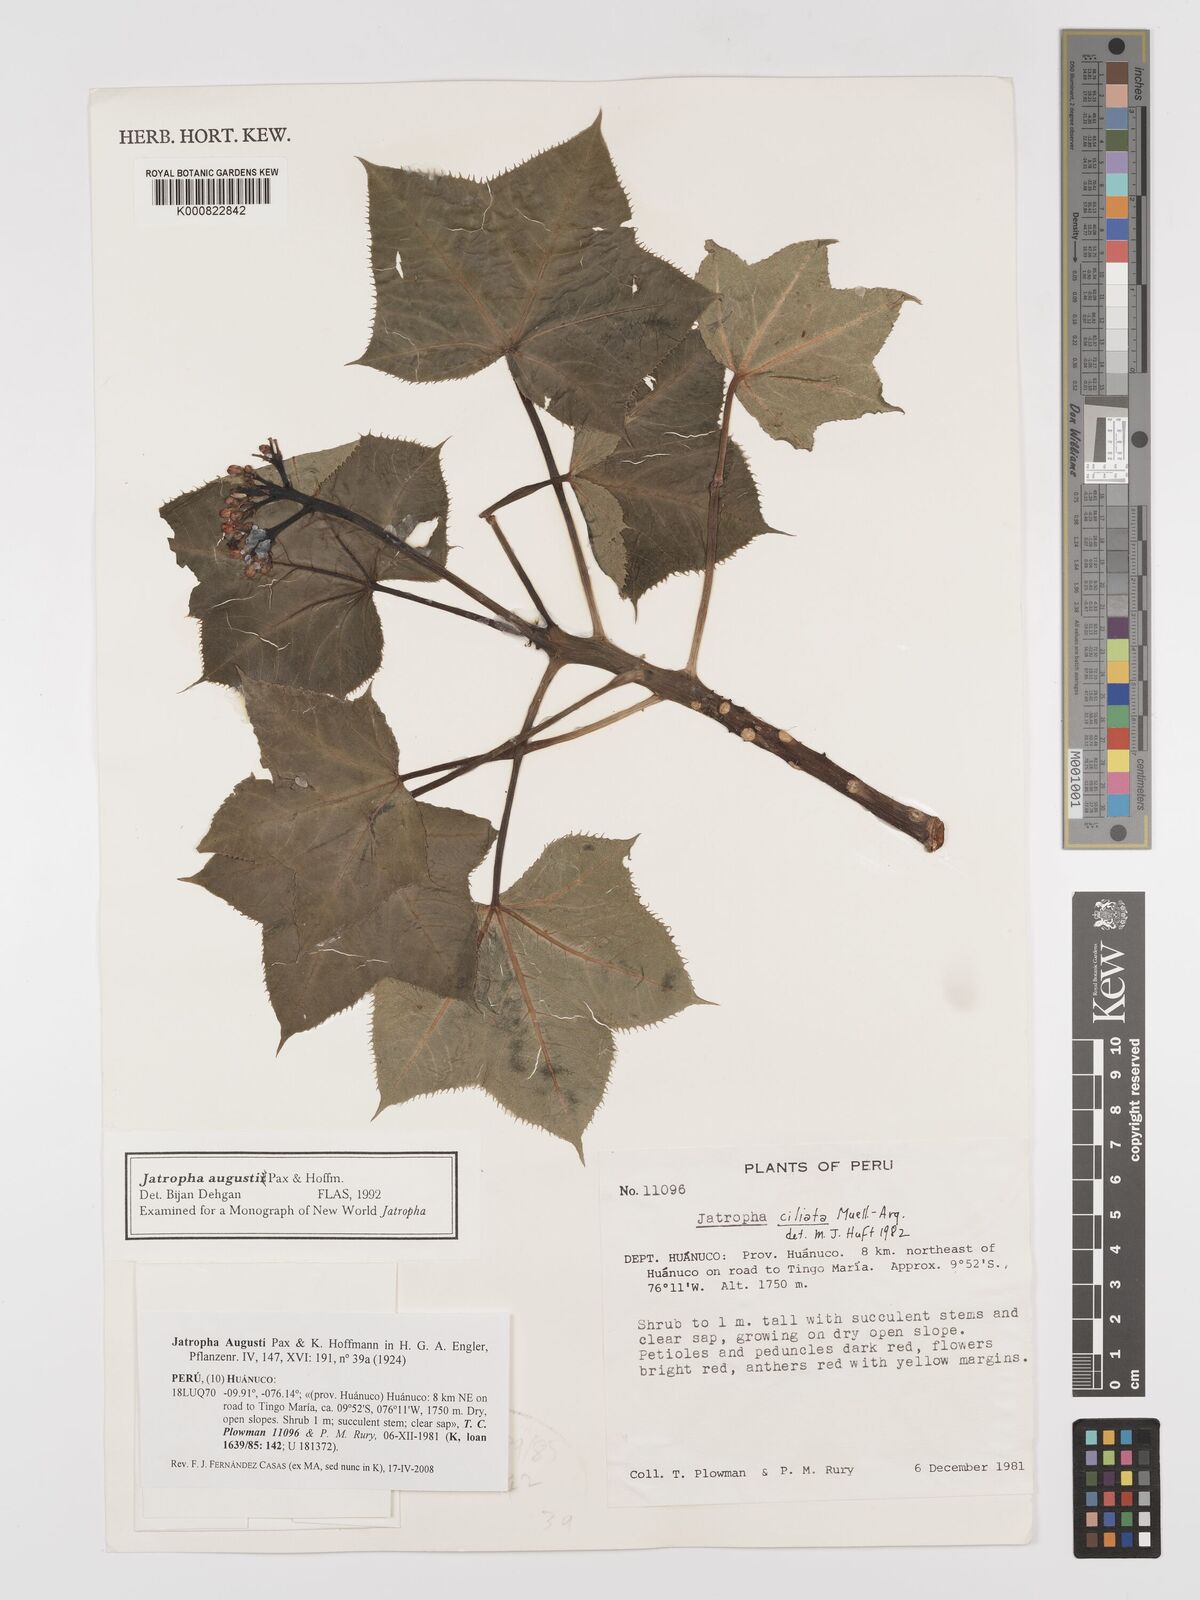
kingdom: Plantae
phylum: Tracheophyta
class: Magnoliopsida
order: Malpighiales
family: Euphorbiaceae
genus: Jatropha
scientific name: Jatropha augusti
